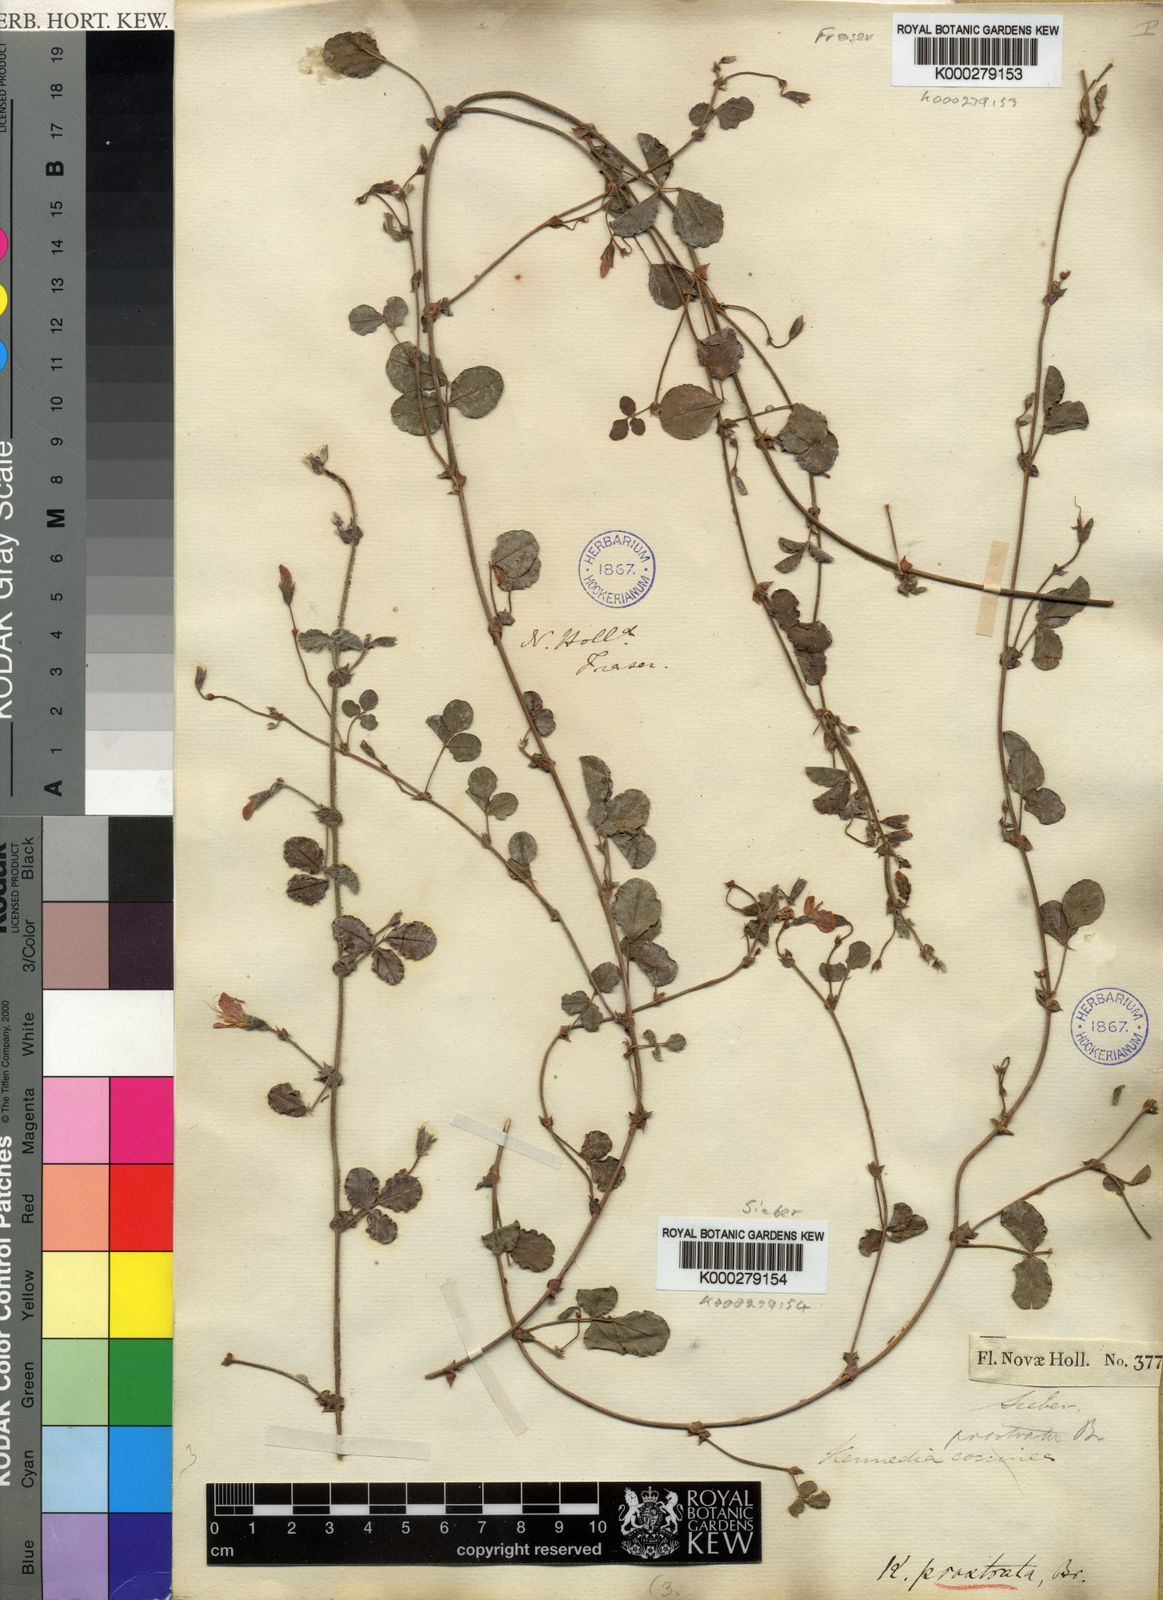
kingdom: Plantae
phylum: Tracheophyta
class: Magnoliopsida
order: Fabales
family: Fabaceae
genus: Kennedia
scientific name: Kennedia prostrata
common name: Running-postman
